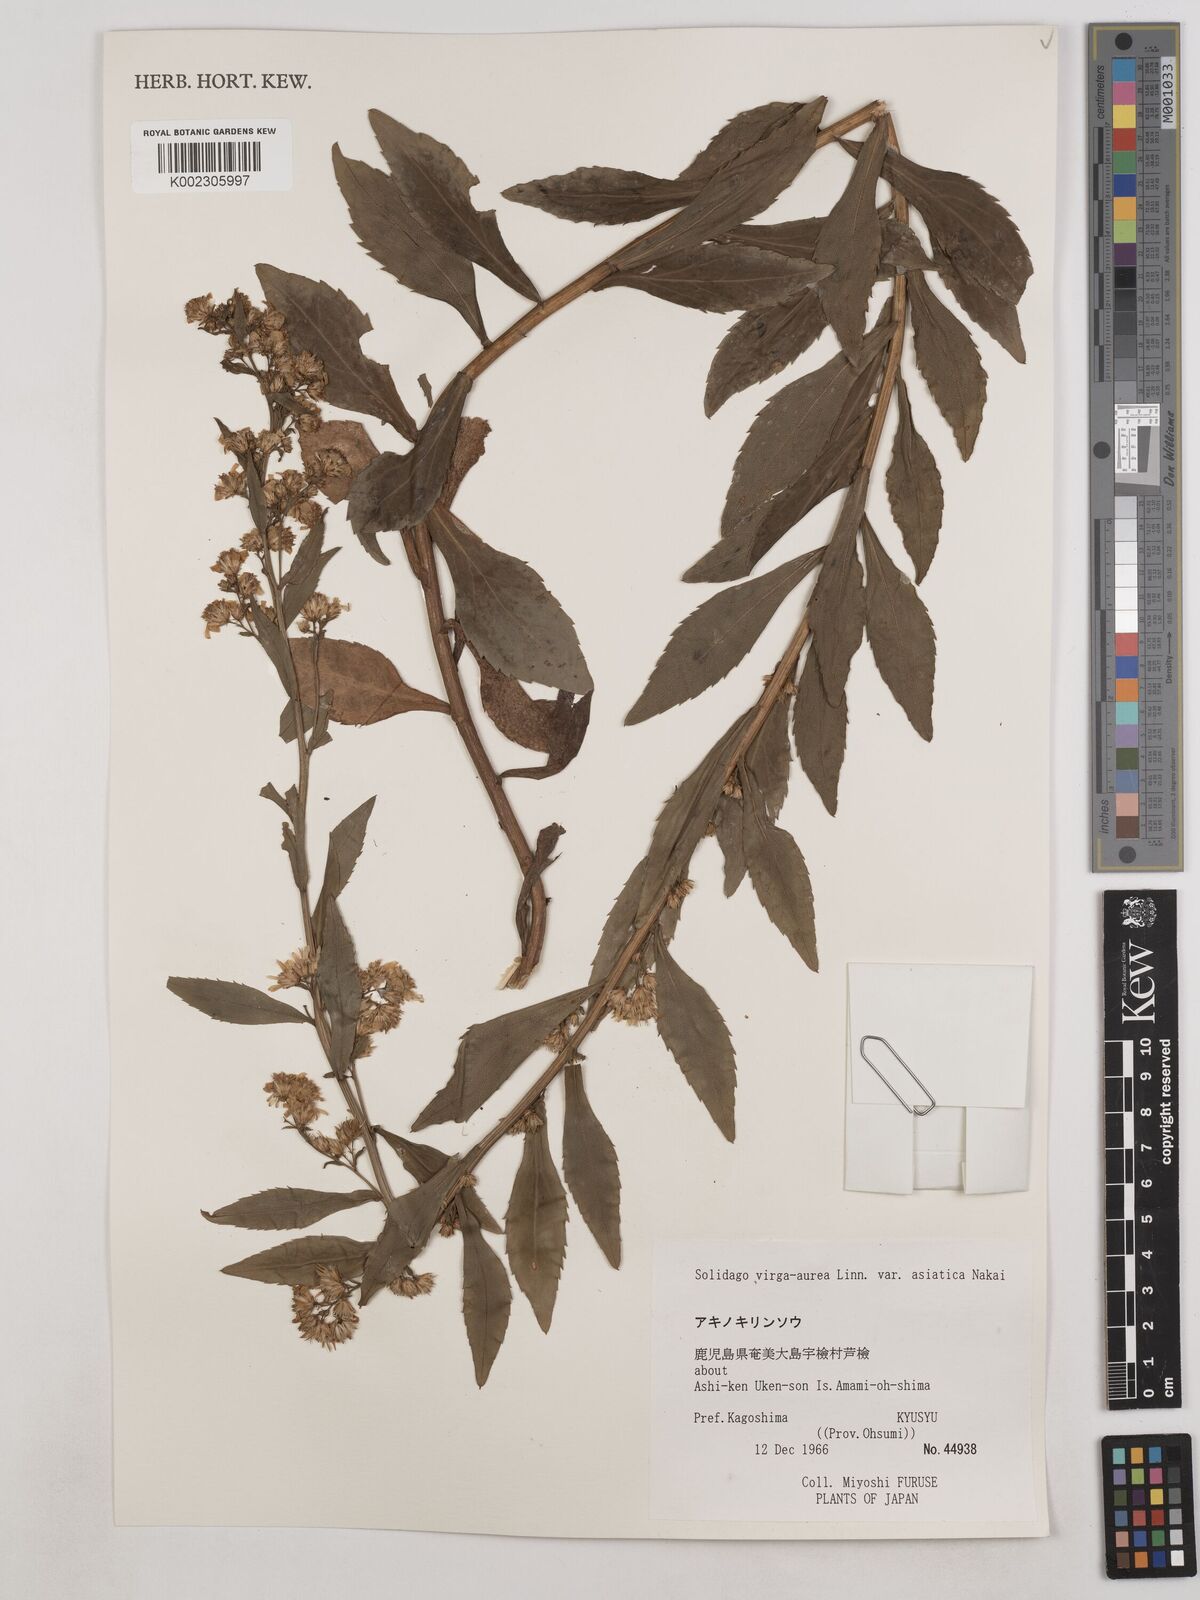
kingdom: Plantae
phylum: Tracheophyta
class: Magnoliopsida
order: Asterales
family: Asteraceae
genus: Solidago
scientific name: Solidago virgaurea
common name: Goldenrod
